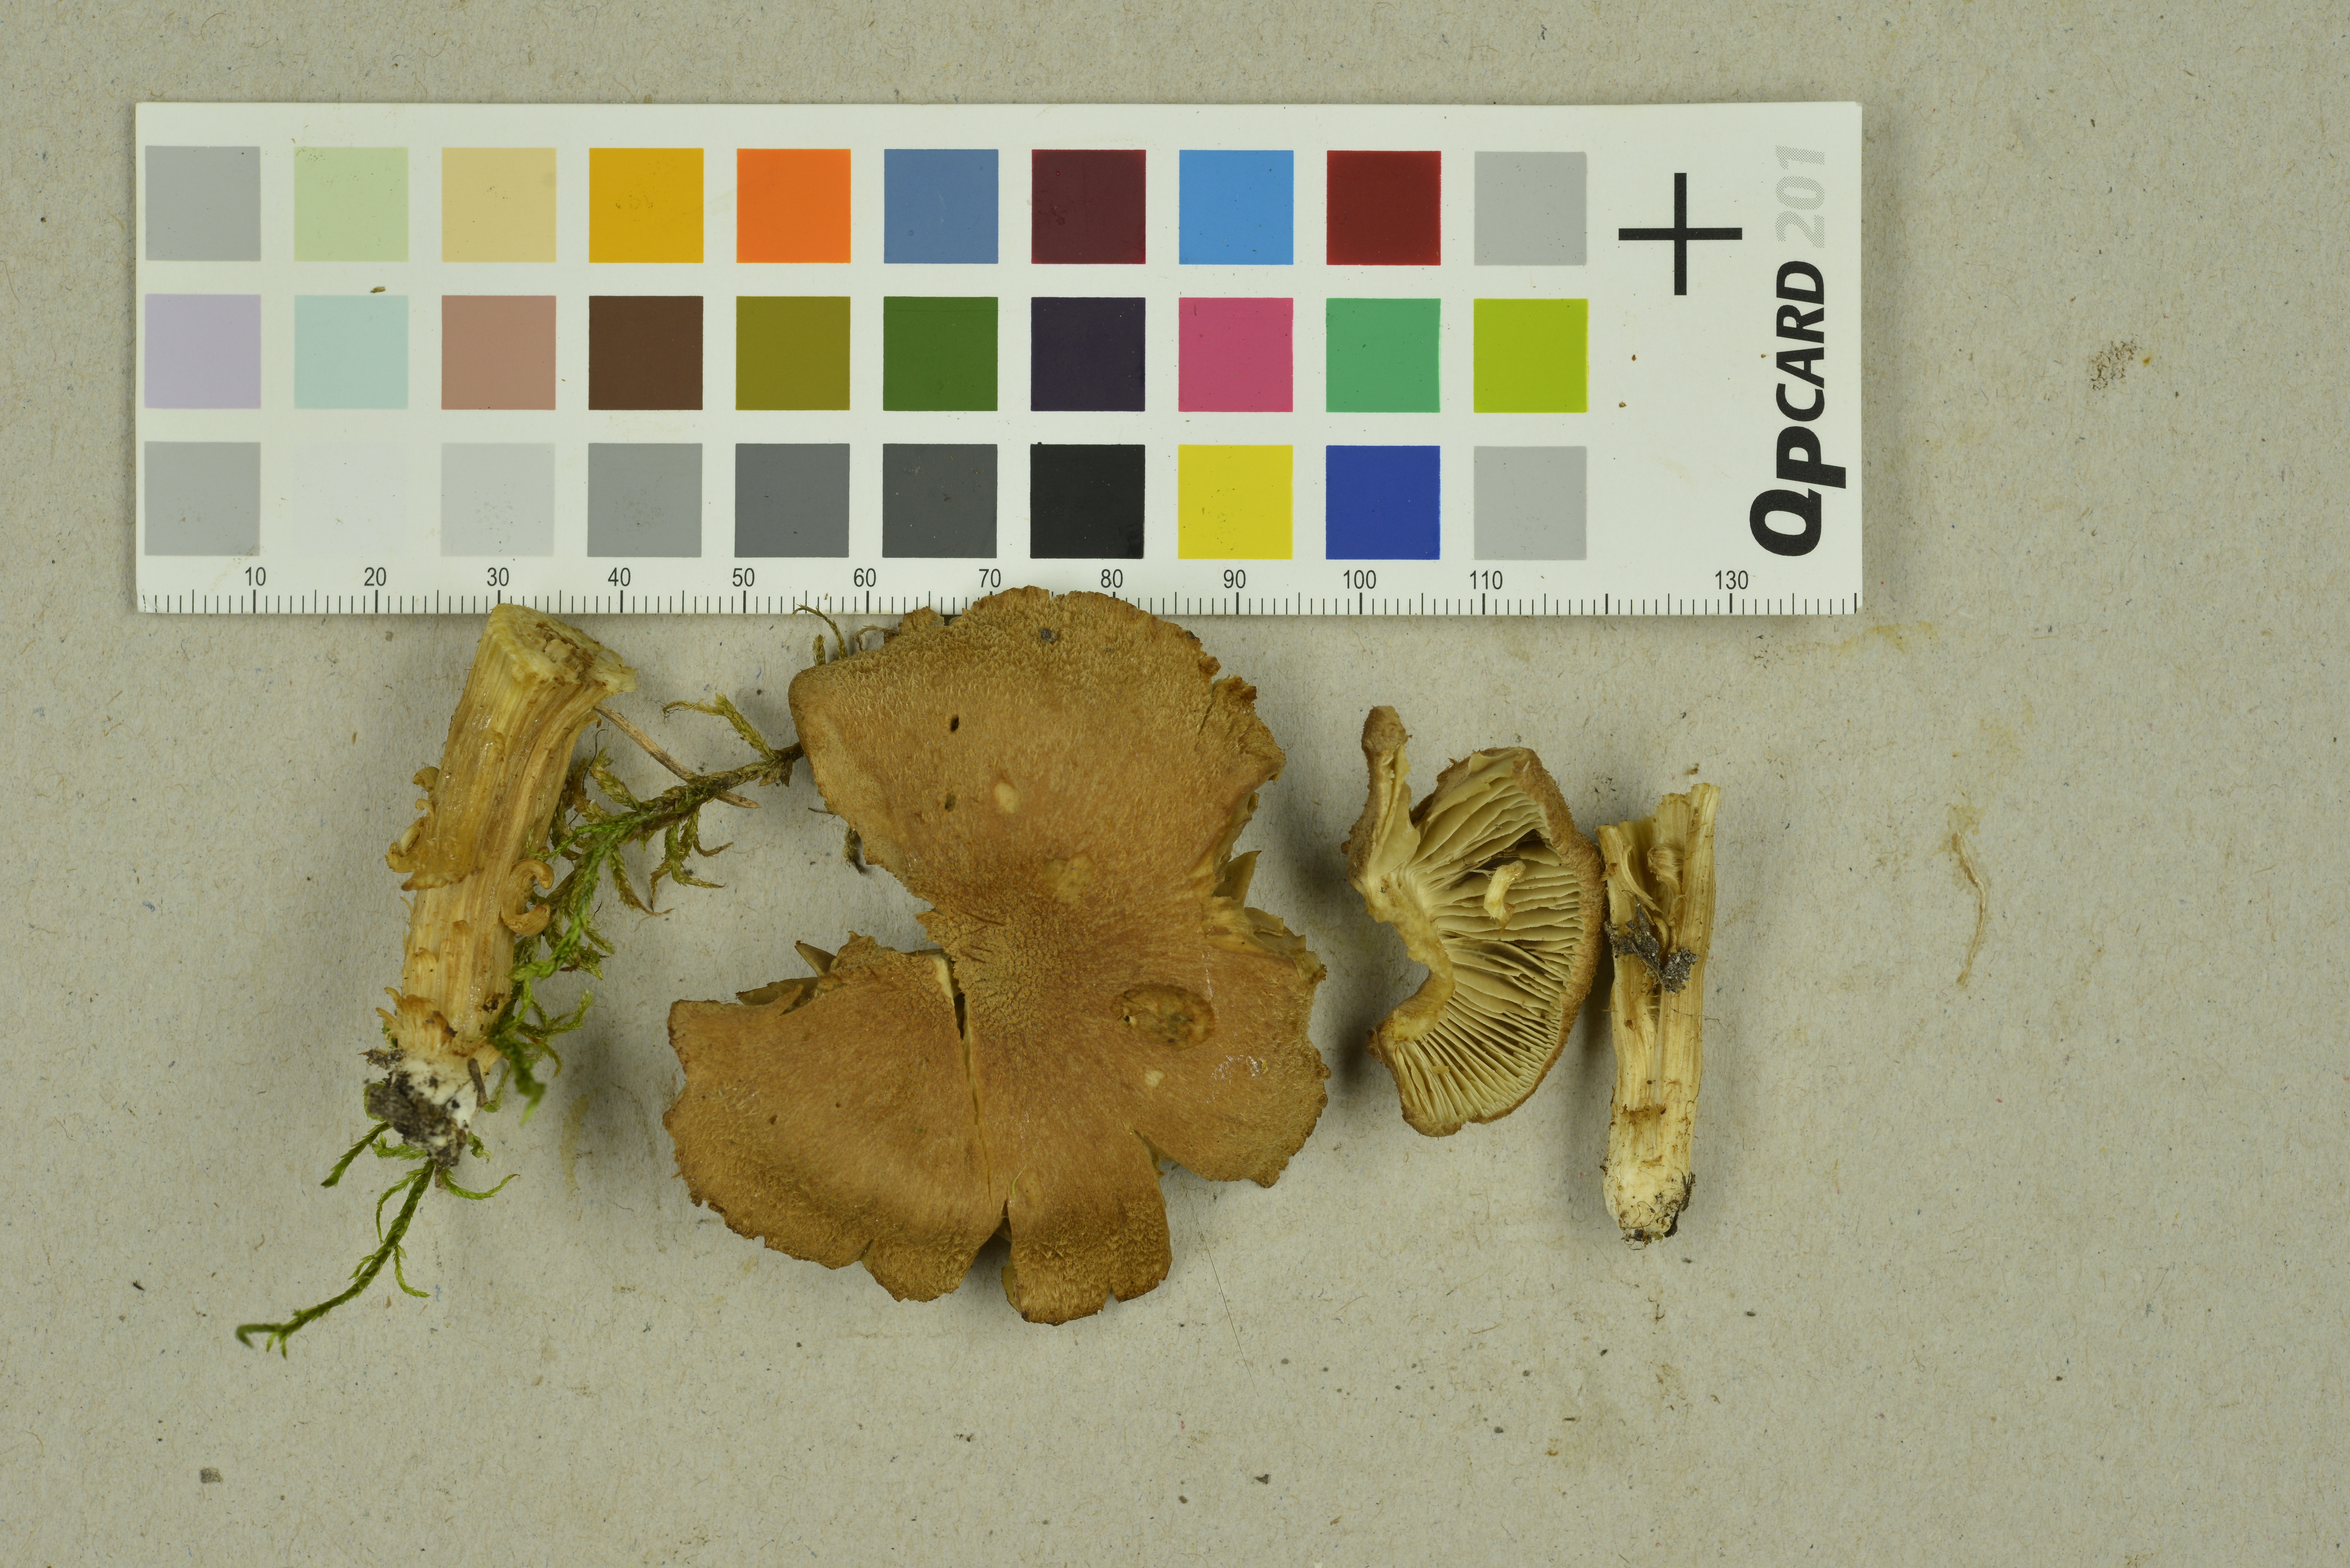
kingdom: Fungi
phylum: Basidiomycota
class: Agaricomycetes
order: Agaricales
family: Inocybaceae
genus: Inocybe
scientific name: Inocybe dulcamara
